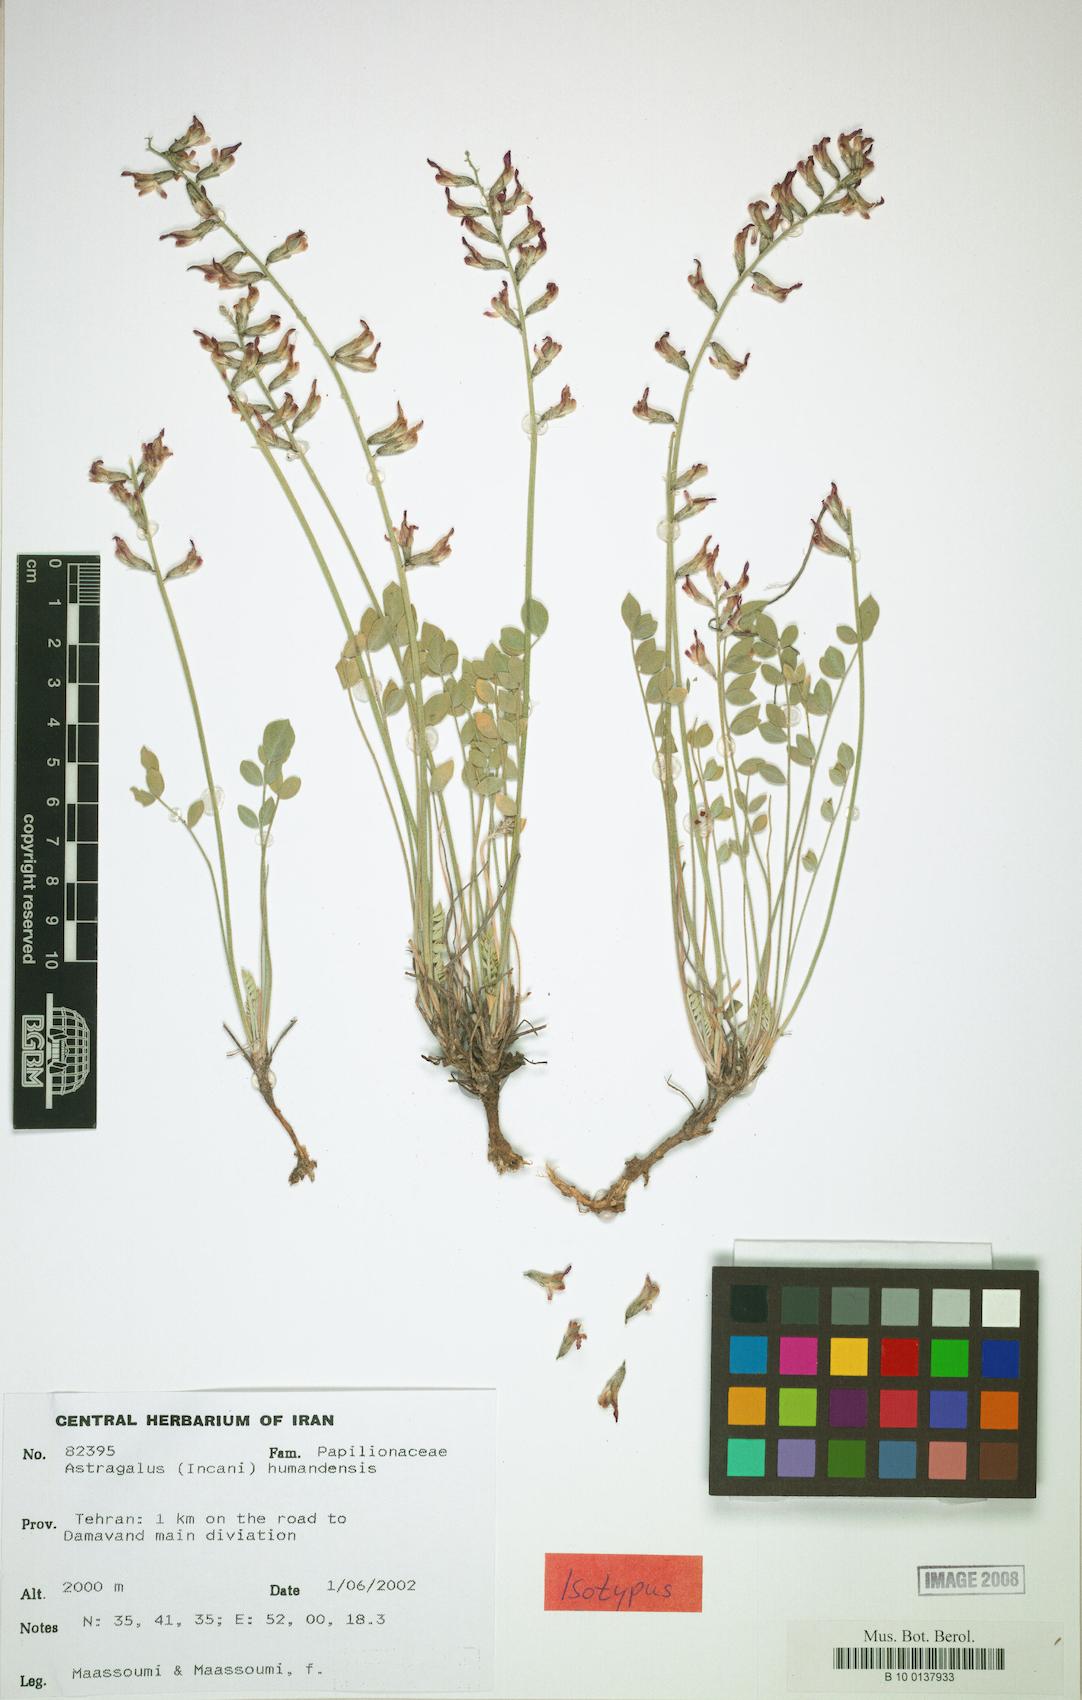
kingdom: Plantae
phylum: Tracheophyta
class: Magnoliopsida
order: Fabales
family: Fabaceae
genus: Astragalus
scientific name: Astragalus
